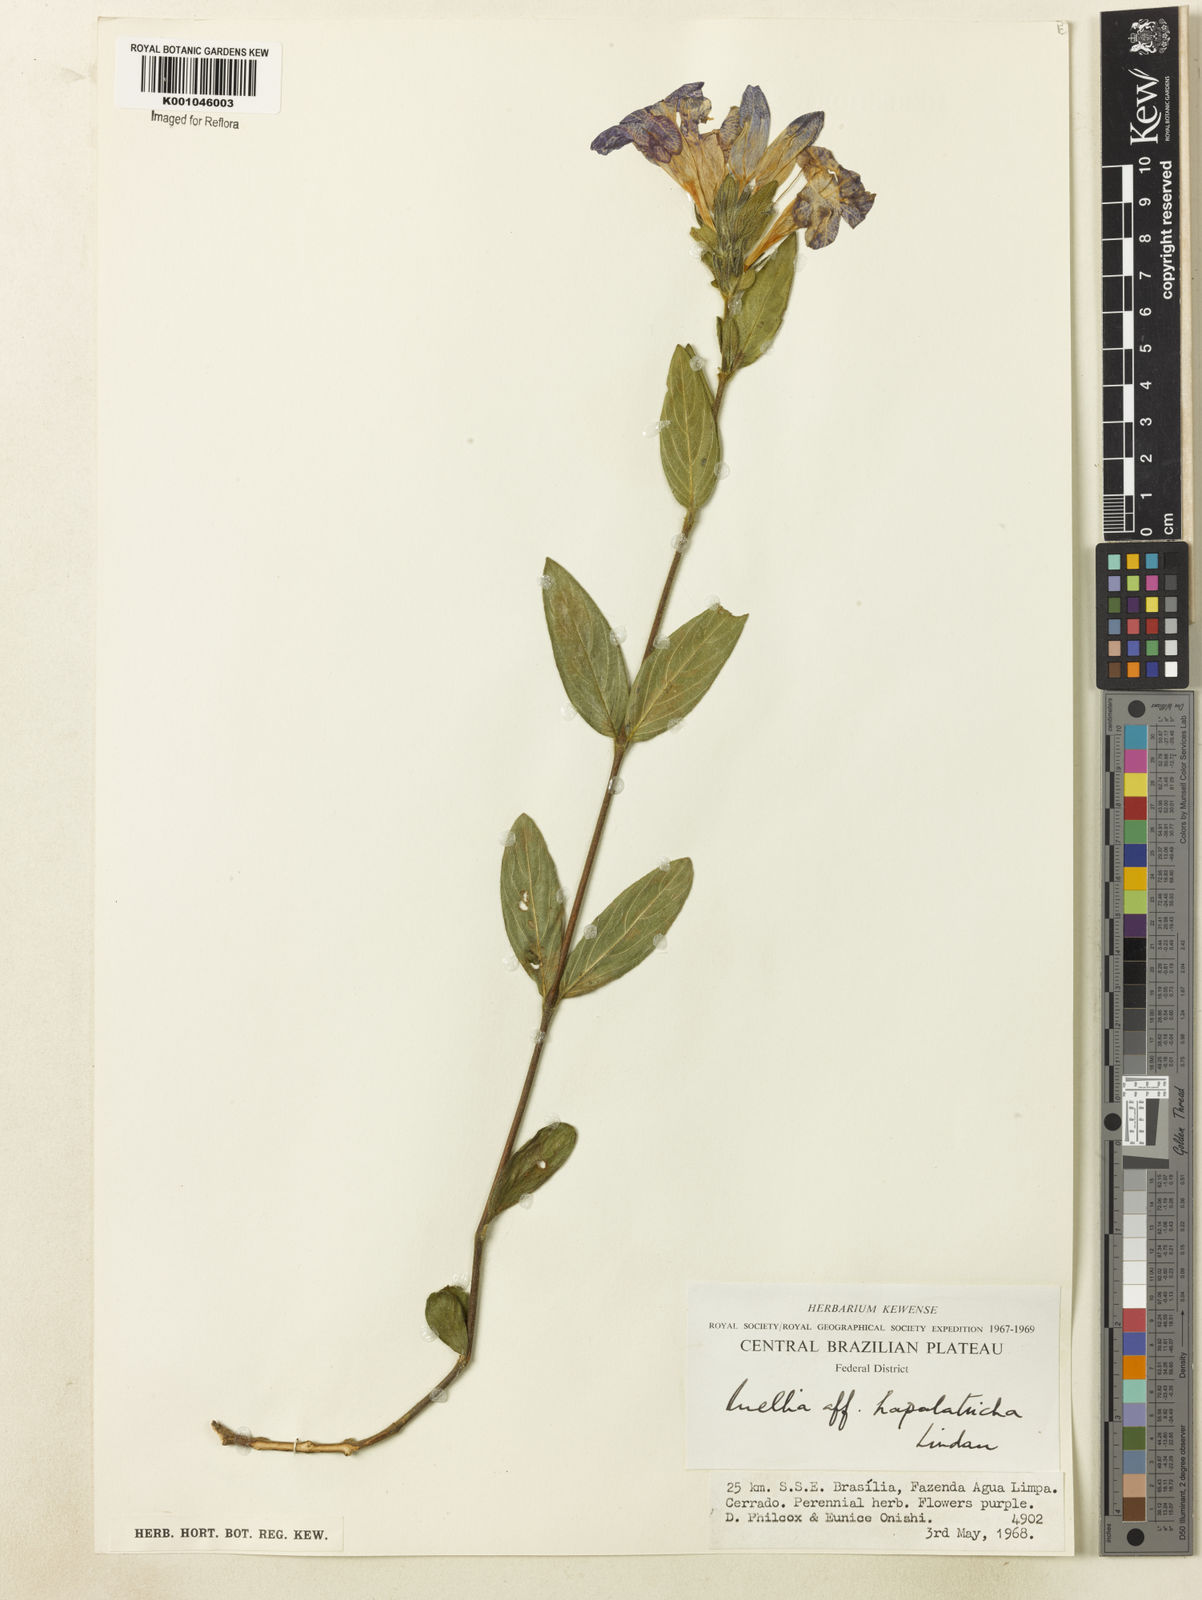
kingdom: Plantae
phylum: Tracheophyta
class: Magnoliopsida
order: Lamiales
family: Acanthaceae
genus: Ruellia
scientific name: Ruellia hapalotricha
